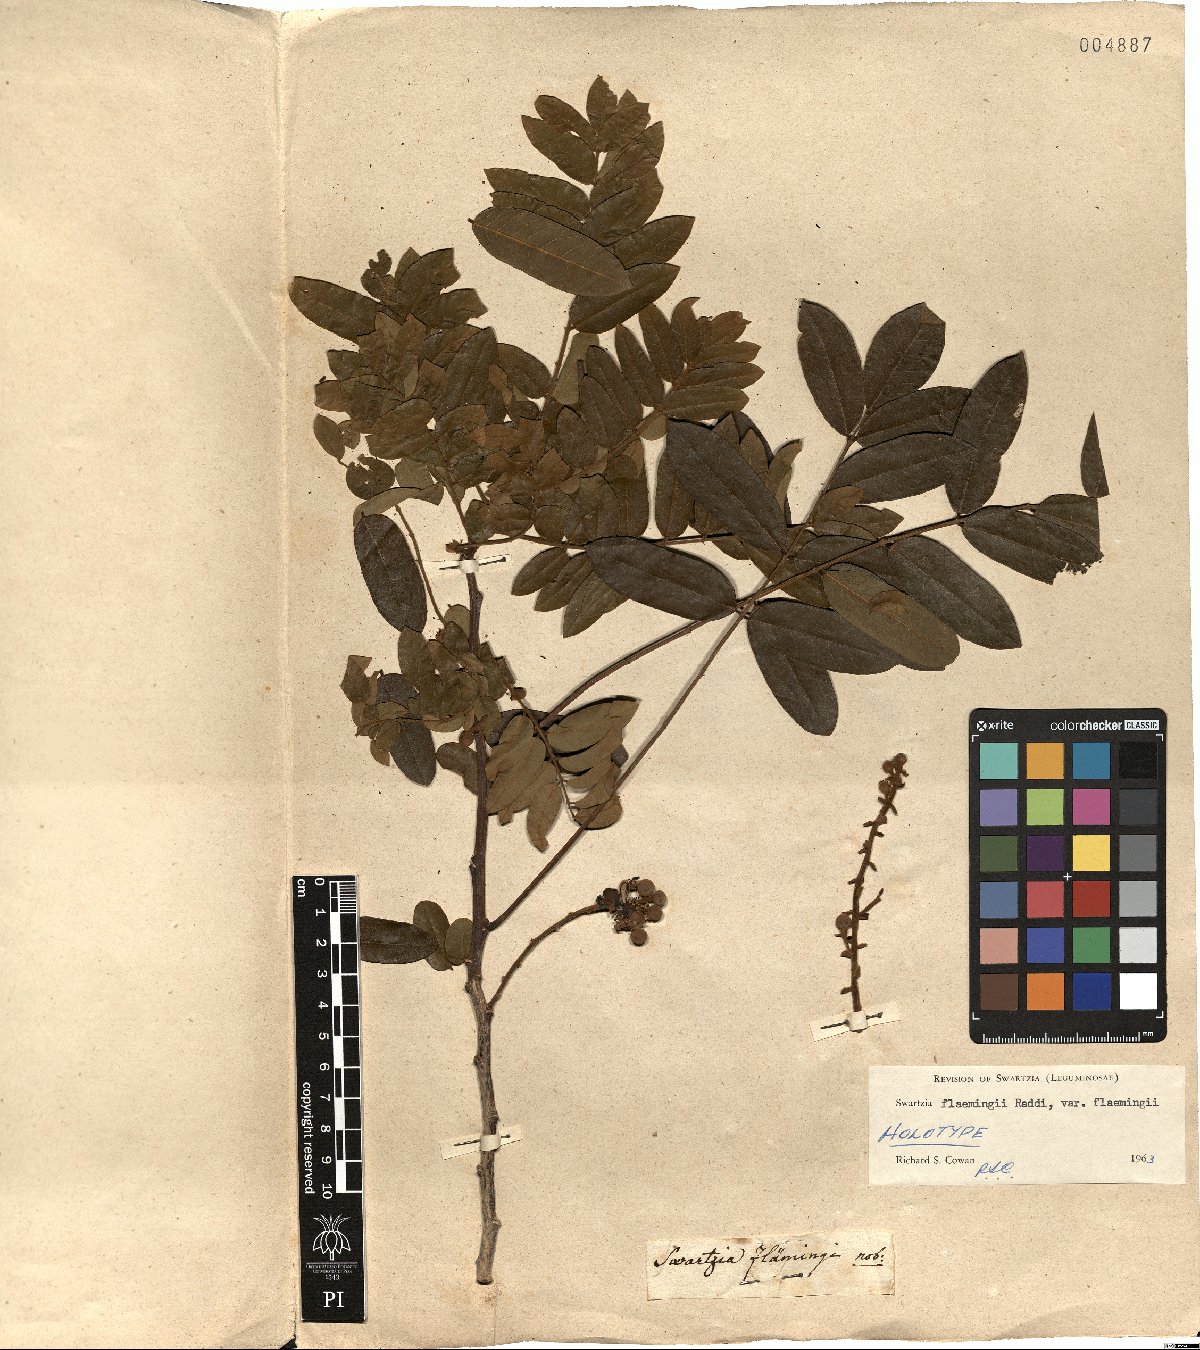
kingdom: Plantae
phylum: Tracheophyta
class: Magnoliopsida
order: Fabales
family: Fabaceae
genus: Swartzia
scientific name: Swartzia flaemingii
